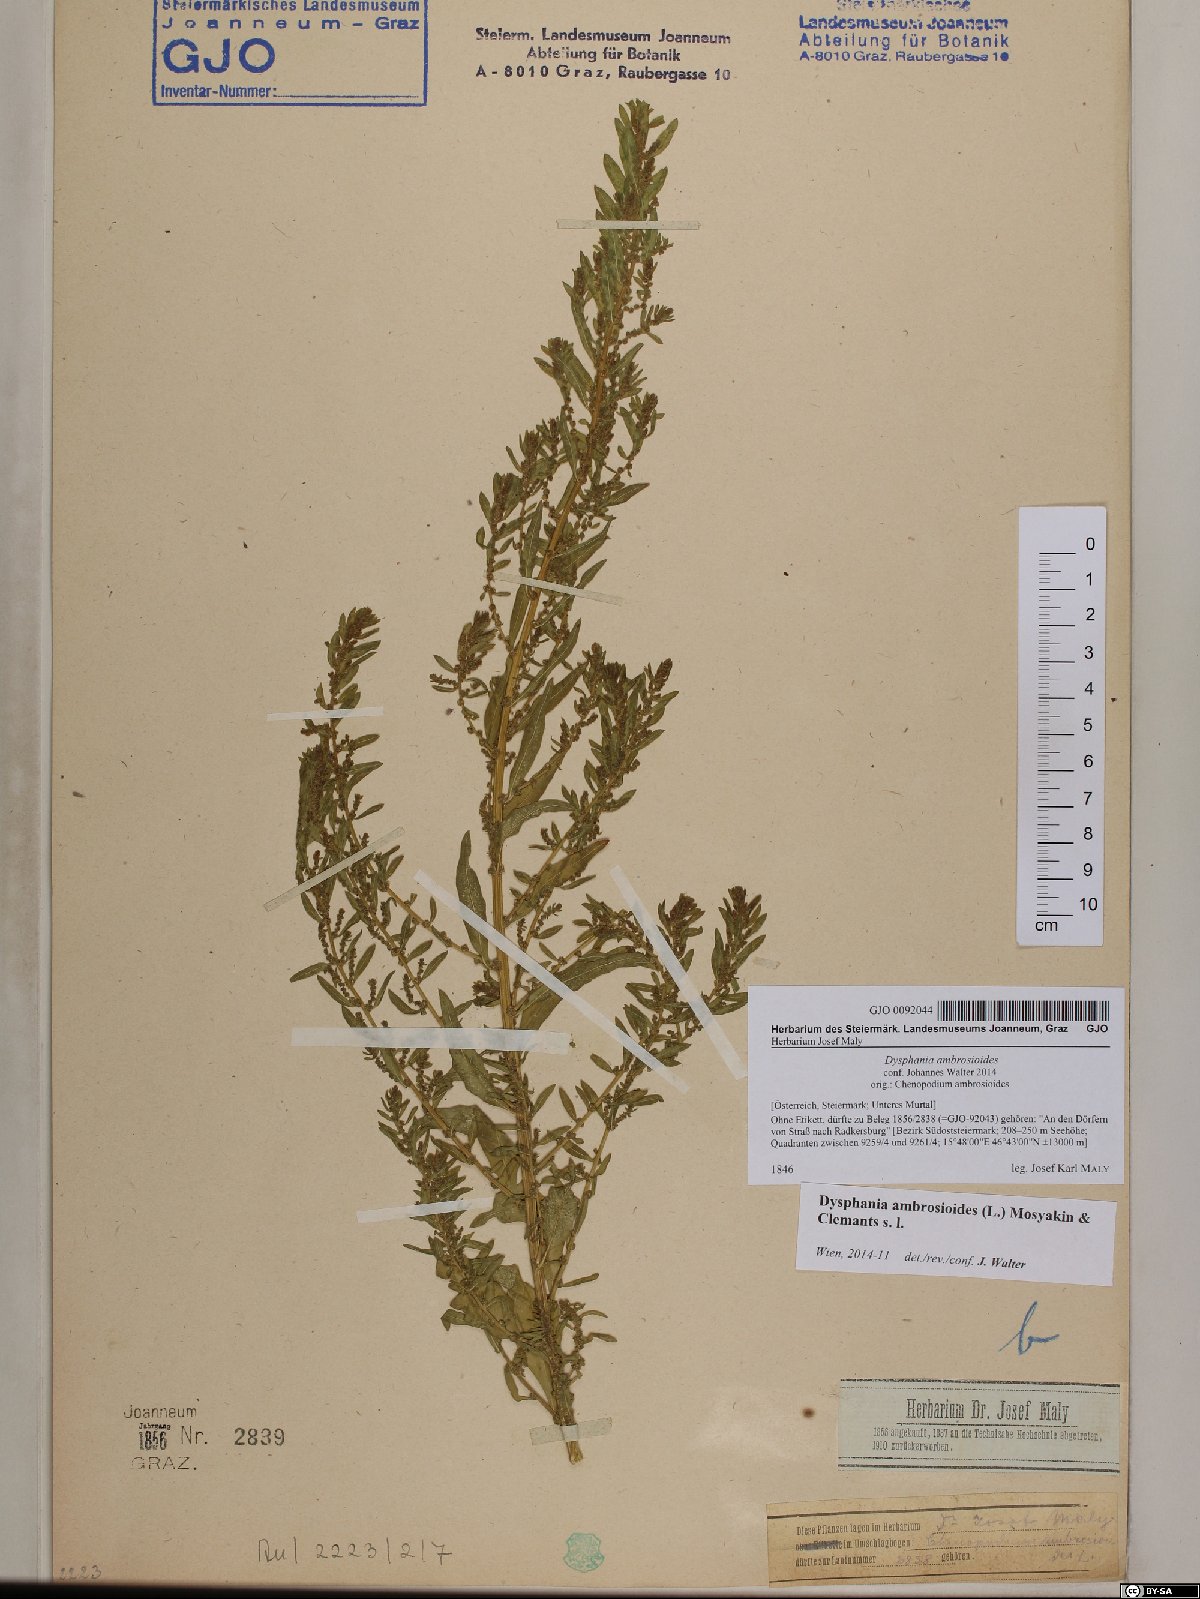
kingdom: Plantae
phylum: Tracheophyta
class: Magnoliopsida
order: Caryophyllales
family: Amaranthaceae
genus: Dysphania
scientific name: Dysphania ambrosioides
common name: Wormseed
